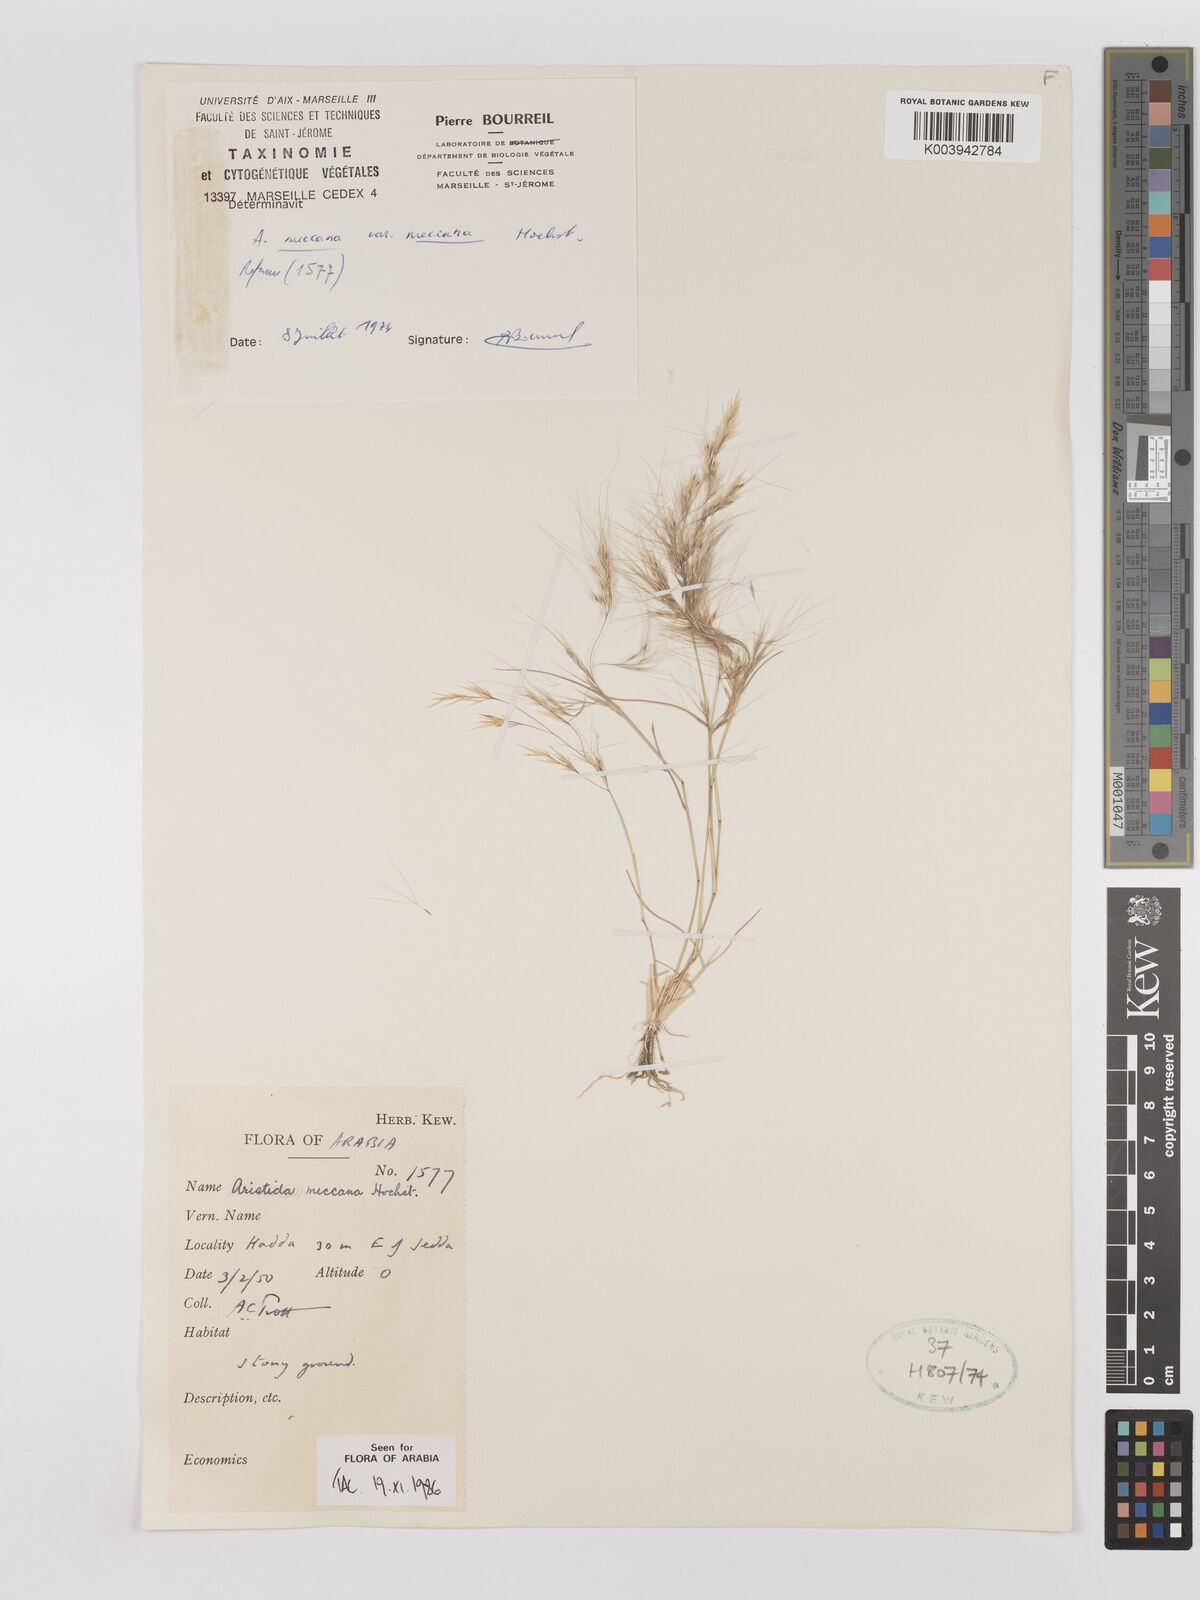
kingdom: Plantae
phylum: Tracheophyta
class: Liliopsida
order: Poales
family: Poaceae
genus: Aristida
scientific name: Aristida mutabilis
